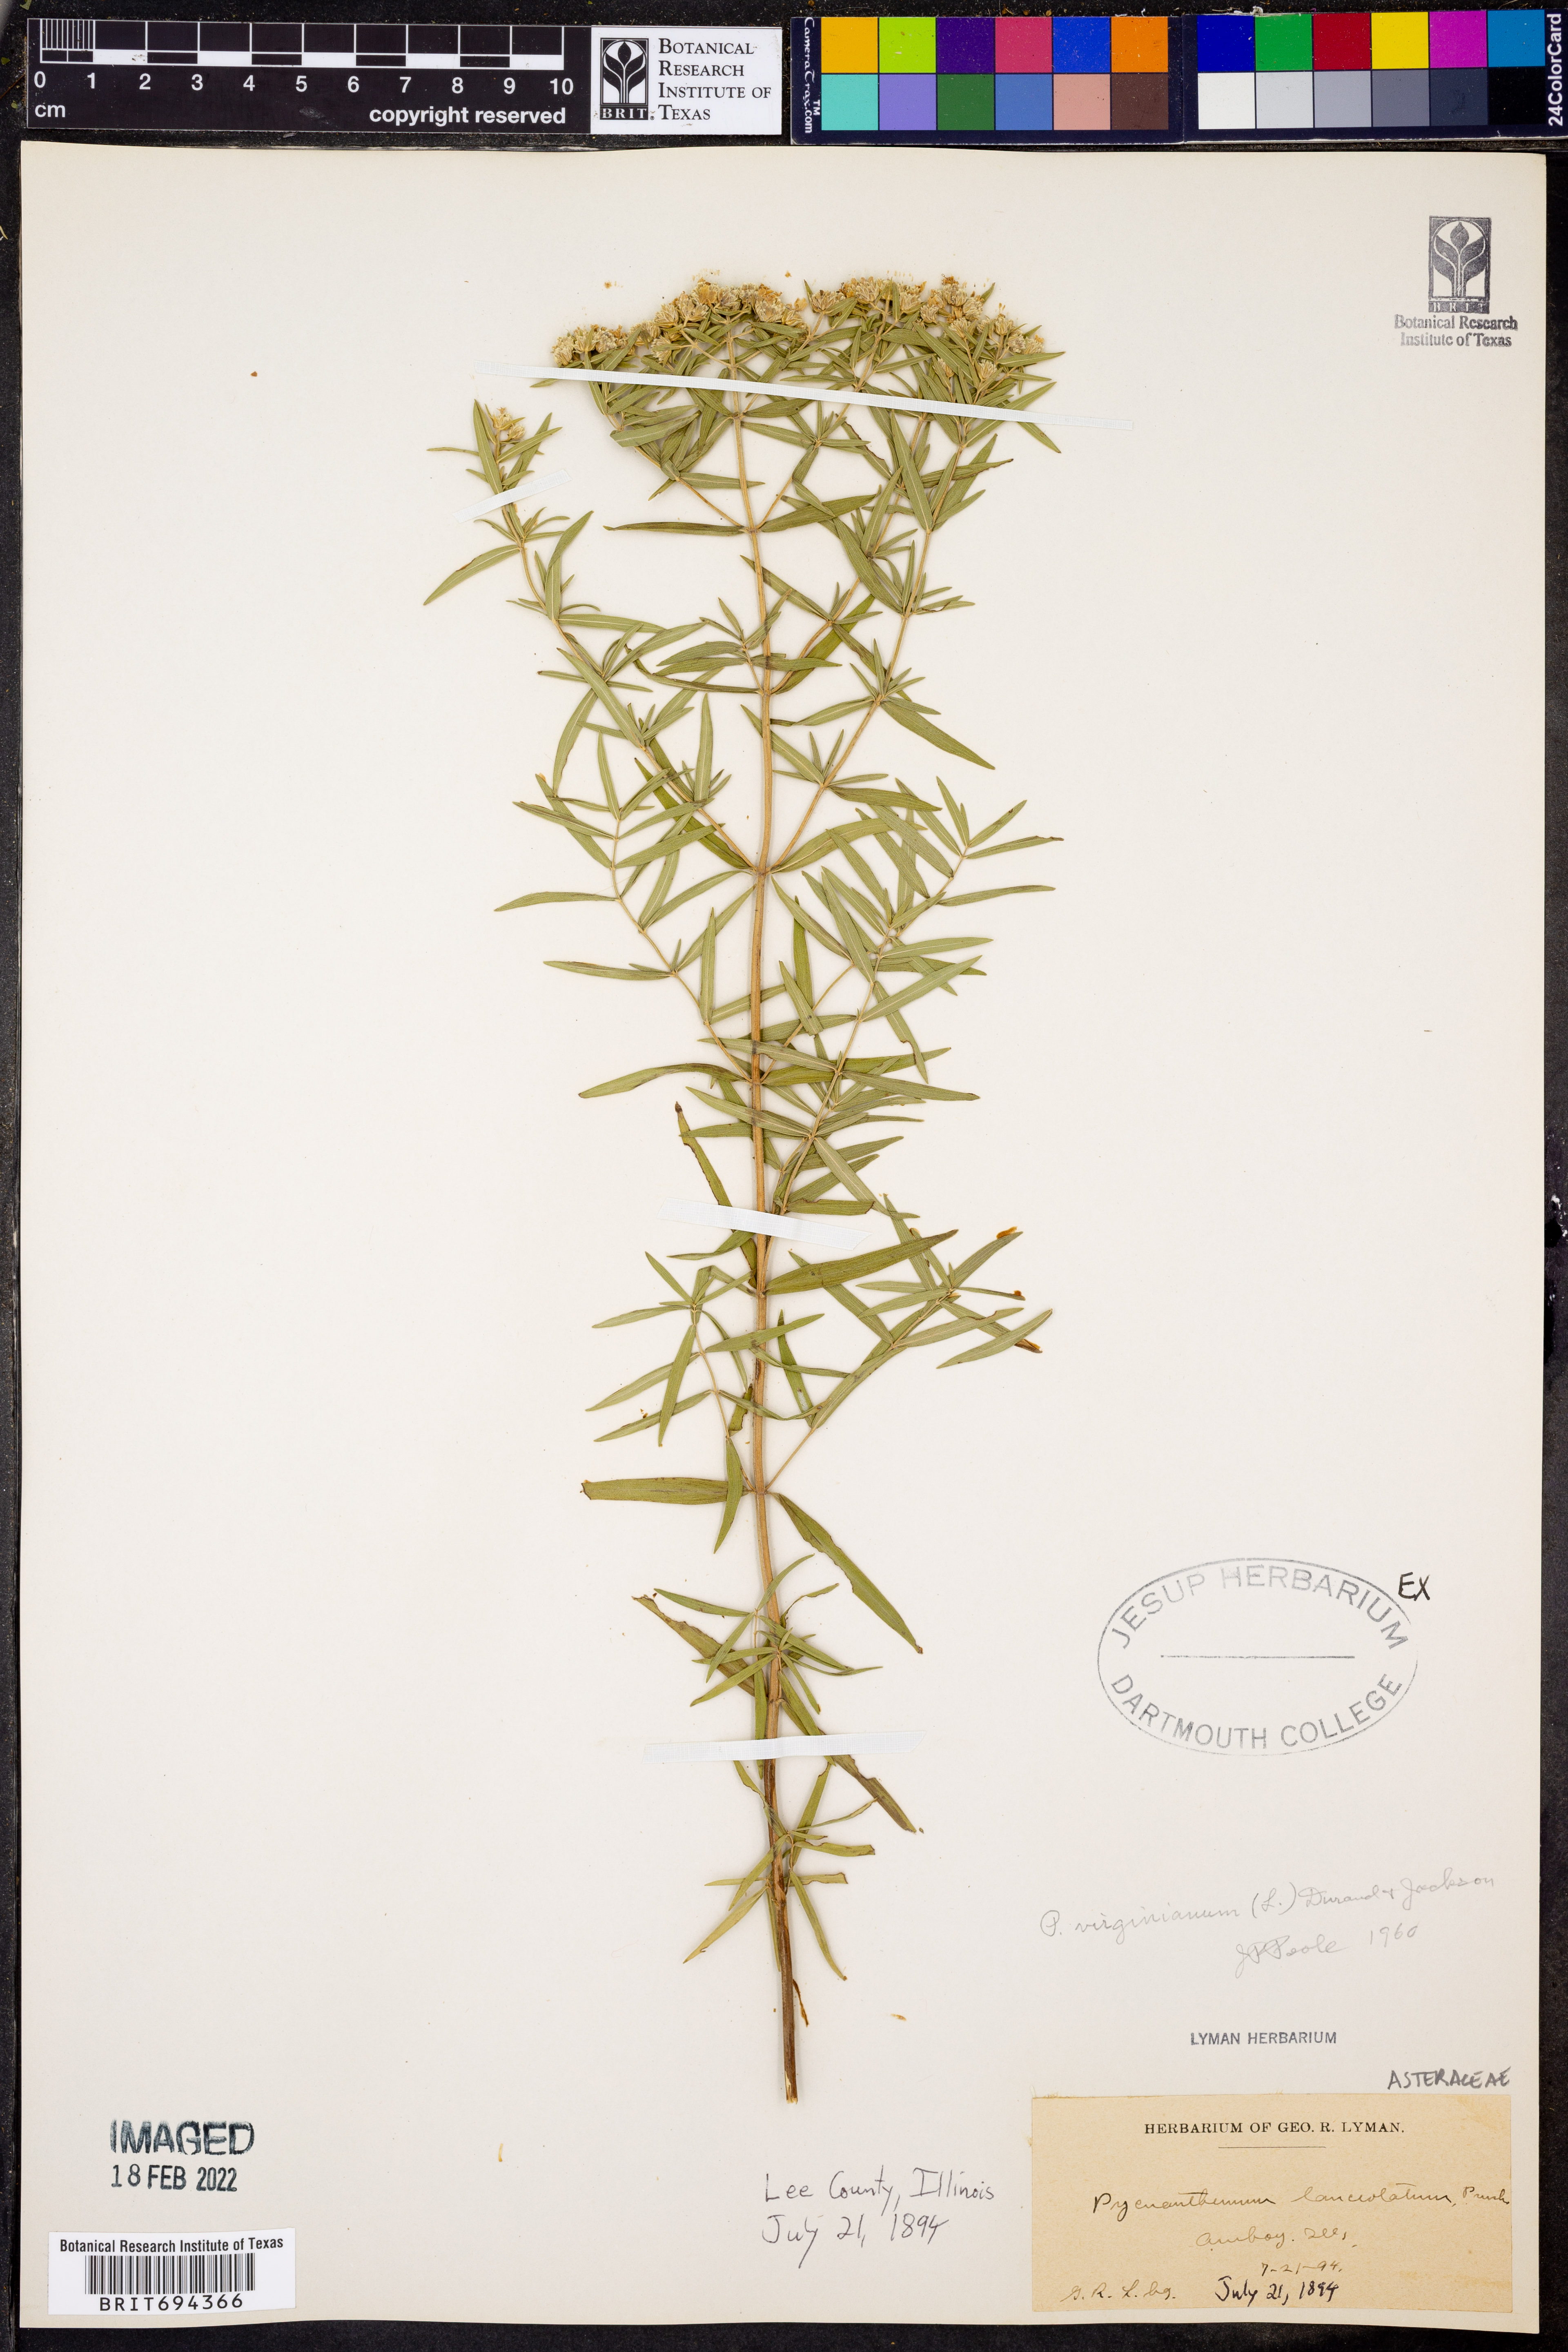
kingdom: Plantae
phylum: Tracheophyta
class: Magnoliopsida
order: Lamiales
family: Lamiaceae
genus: Pycnanthemum
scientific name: Pycnanthemum virginianum
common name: Virginia mountain-mint
